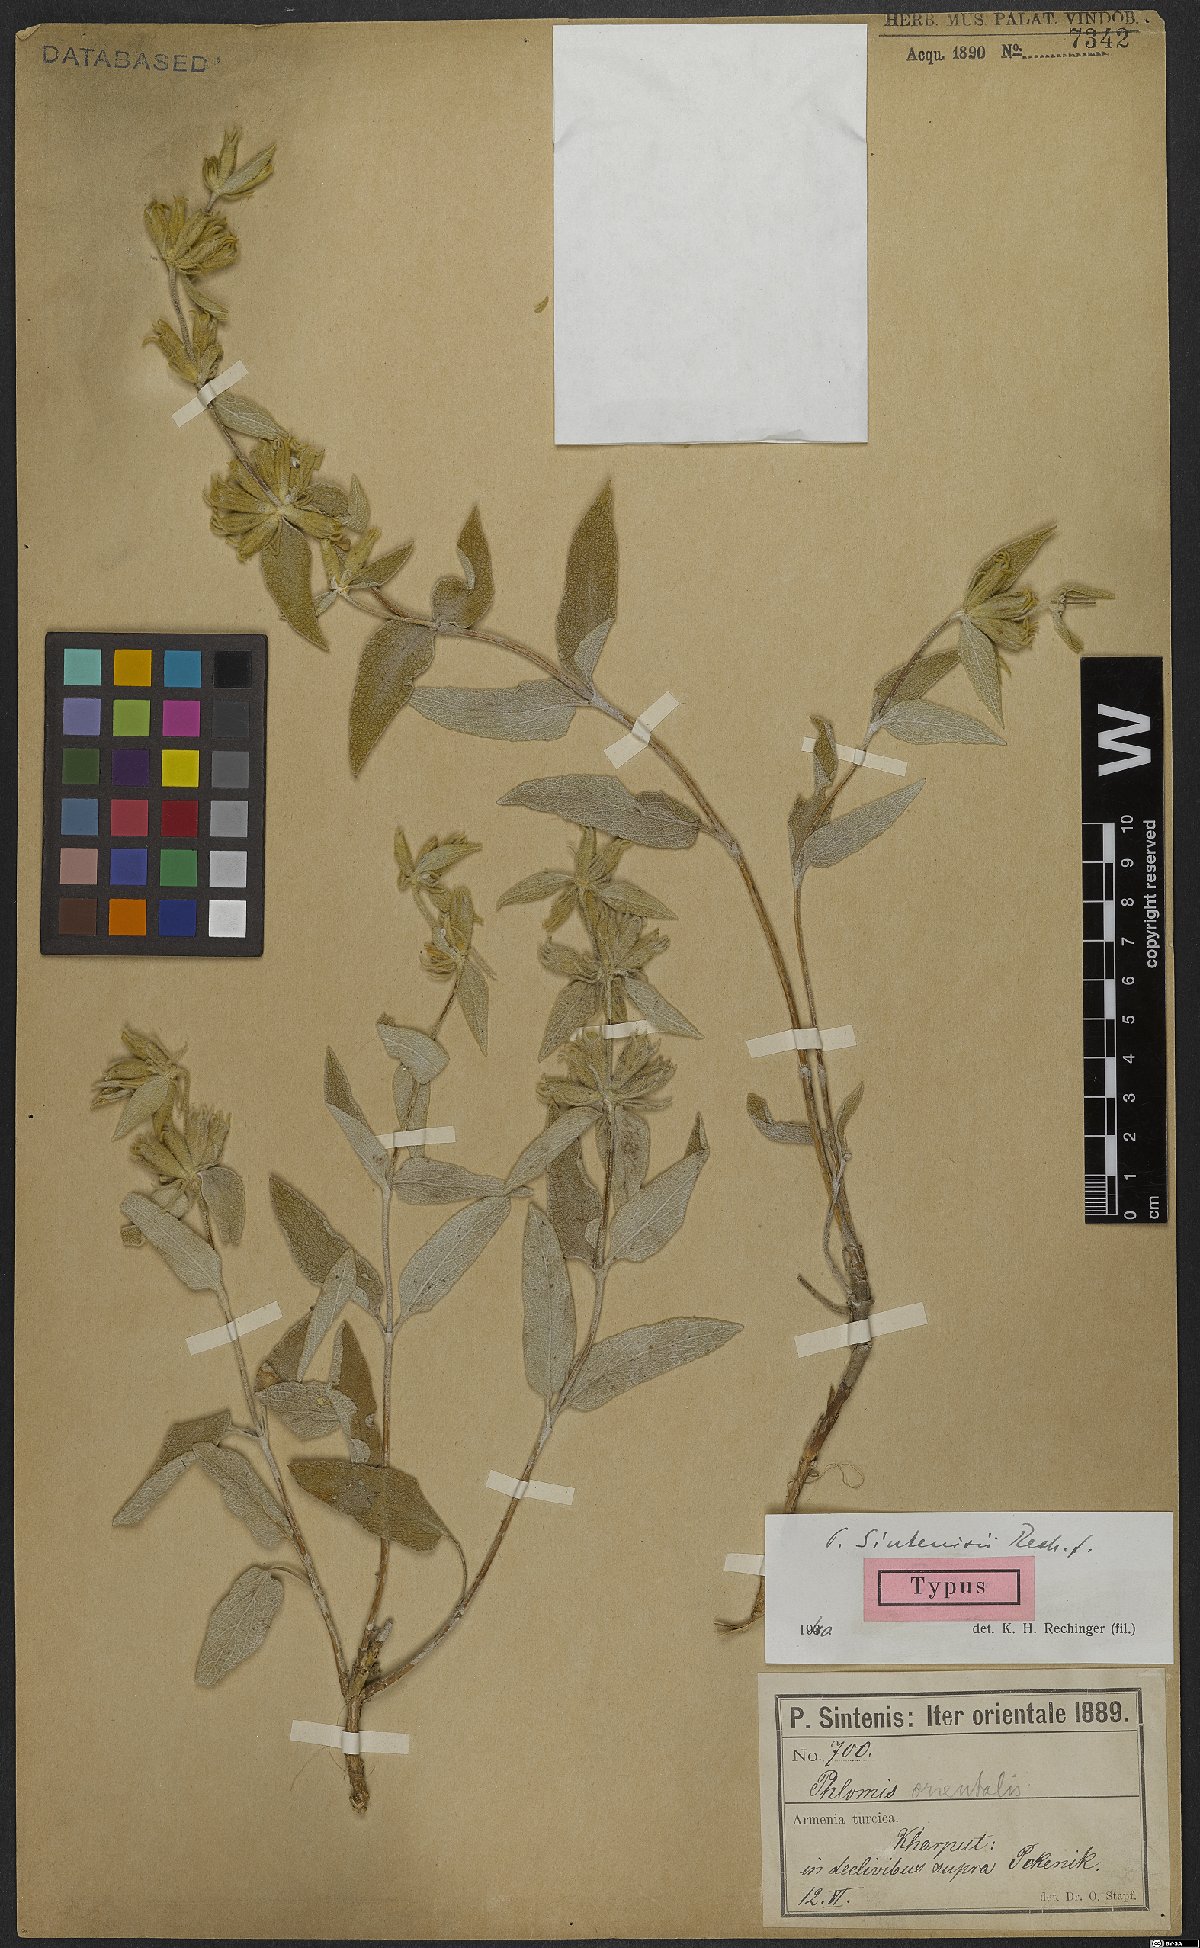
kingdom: Plantae
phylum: Tracheophyta
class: Magnoliopsida
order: Lamiales
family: Lamiaceae
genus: Phlomis
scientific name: Phlomis sintenisii
